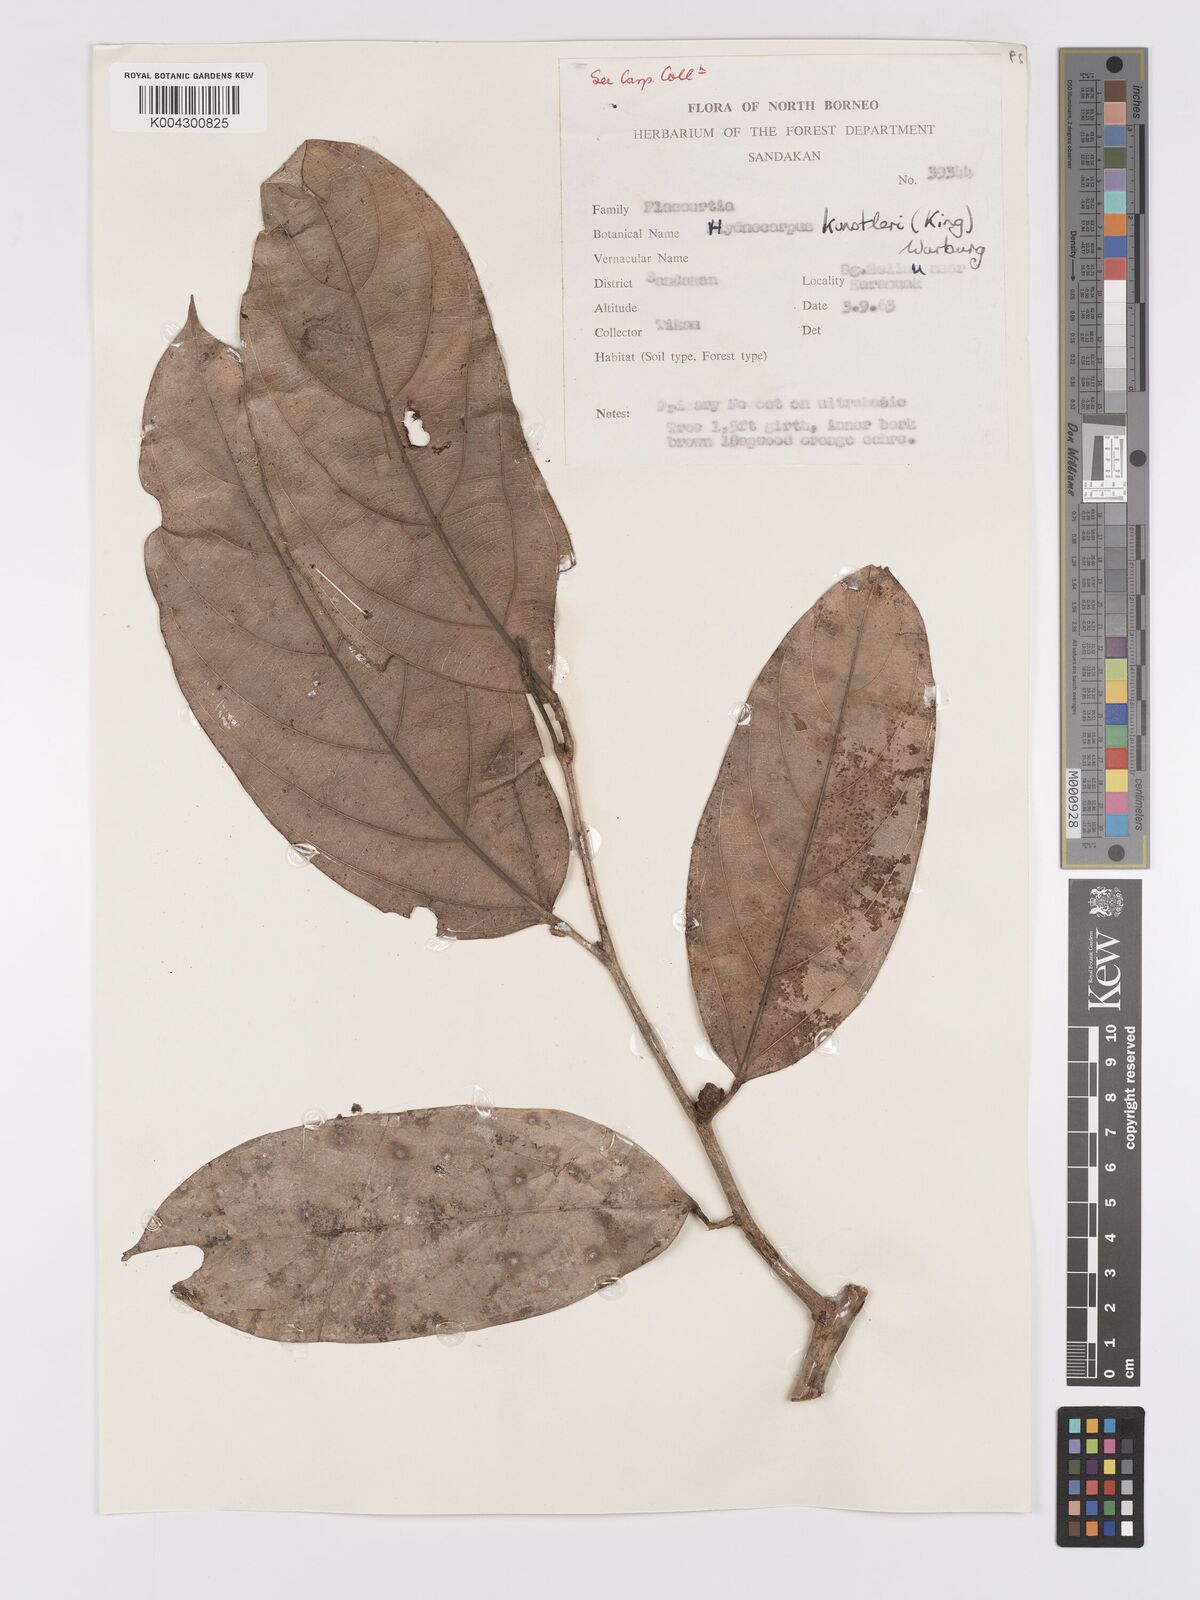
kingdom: Plantae
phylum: Tracheophyta
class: Magnoliopsida
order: Malpighiales
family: Achariaceae
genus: Hydnocarpus
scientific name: Hydnocarpus kunstleri
